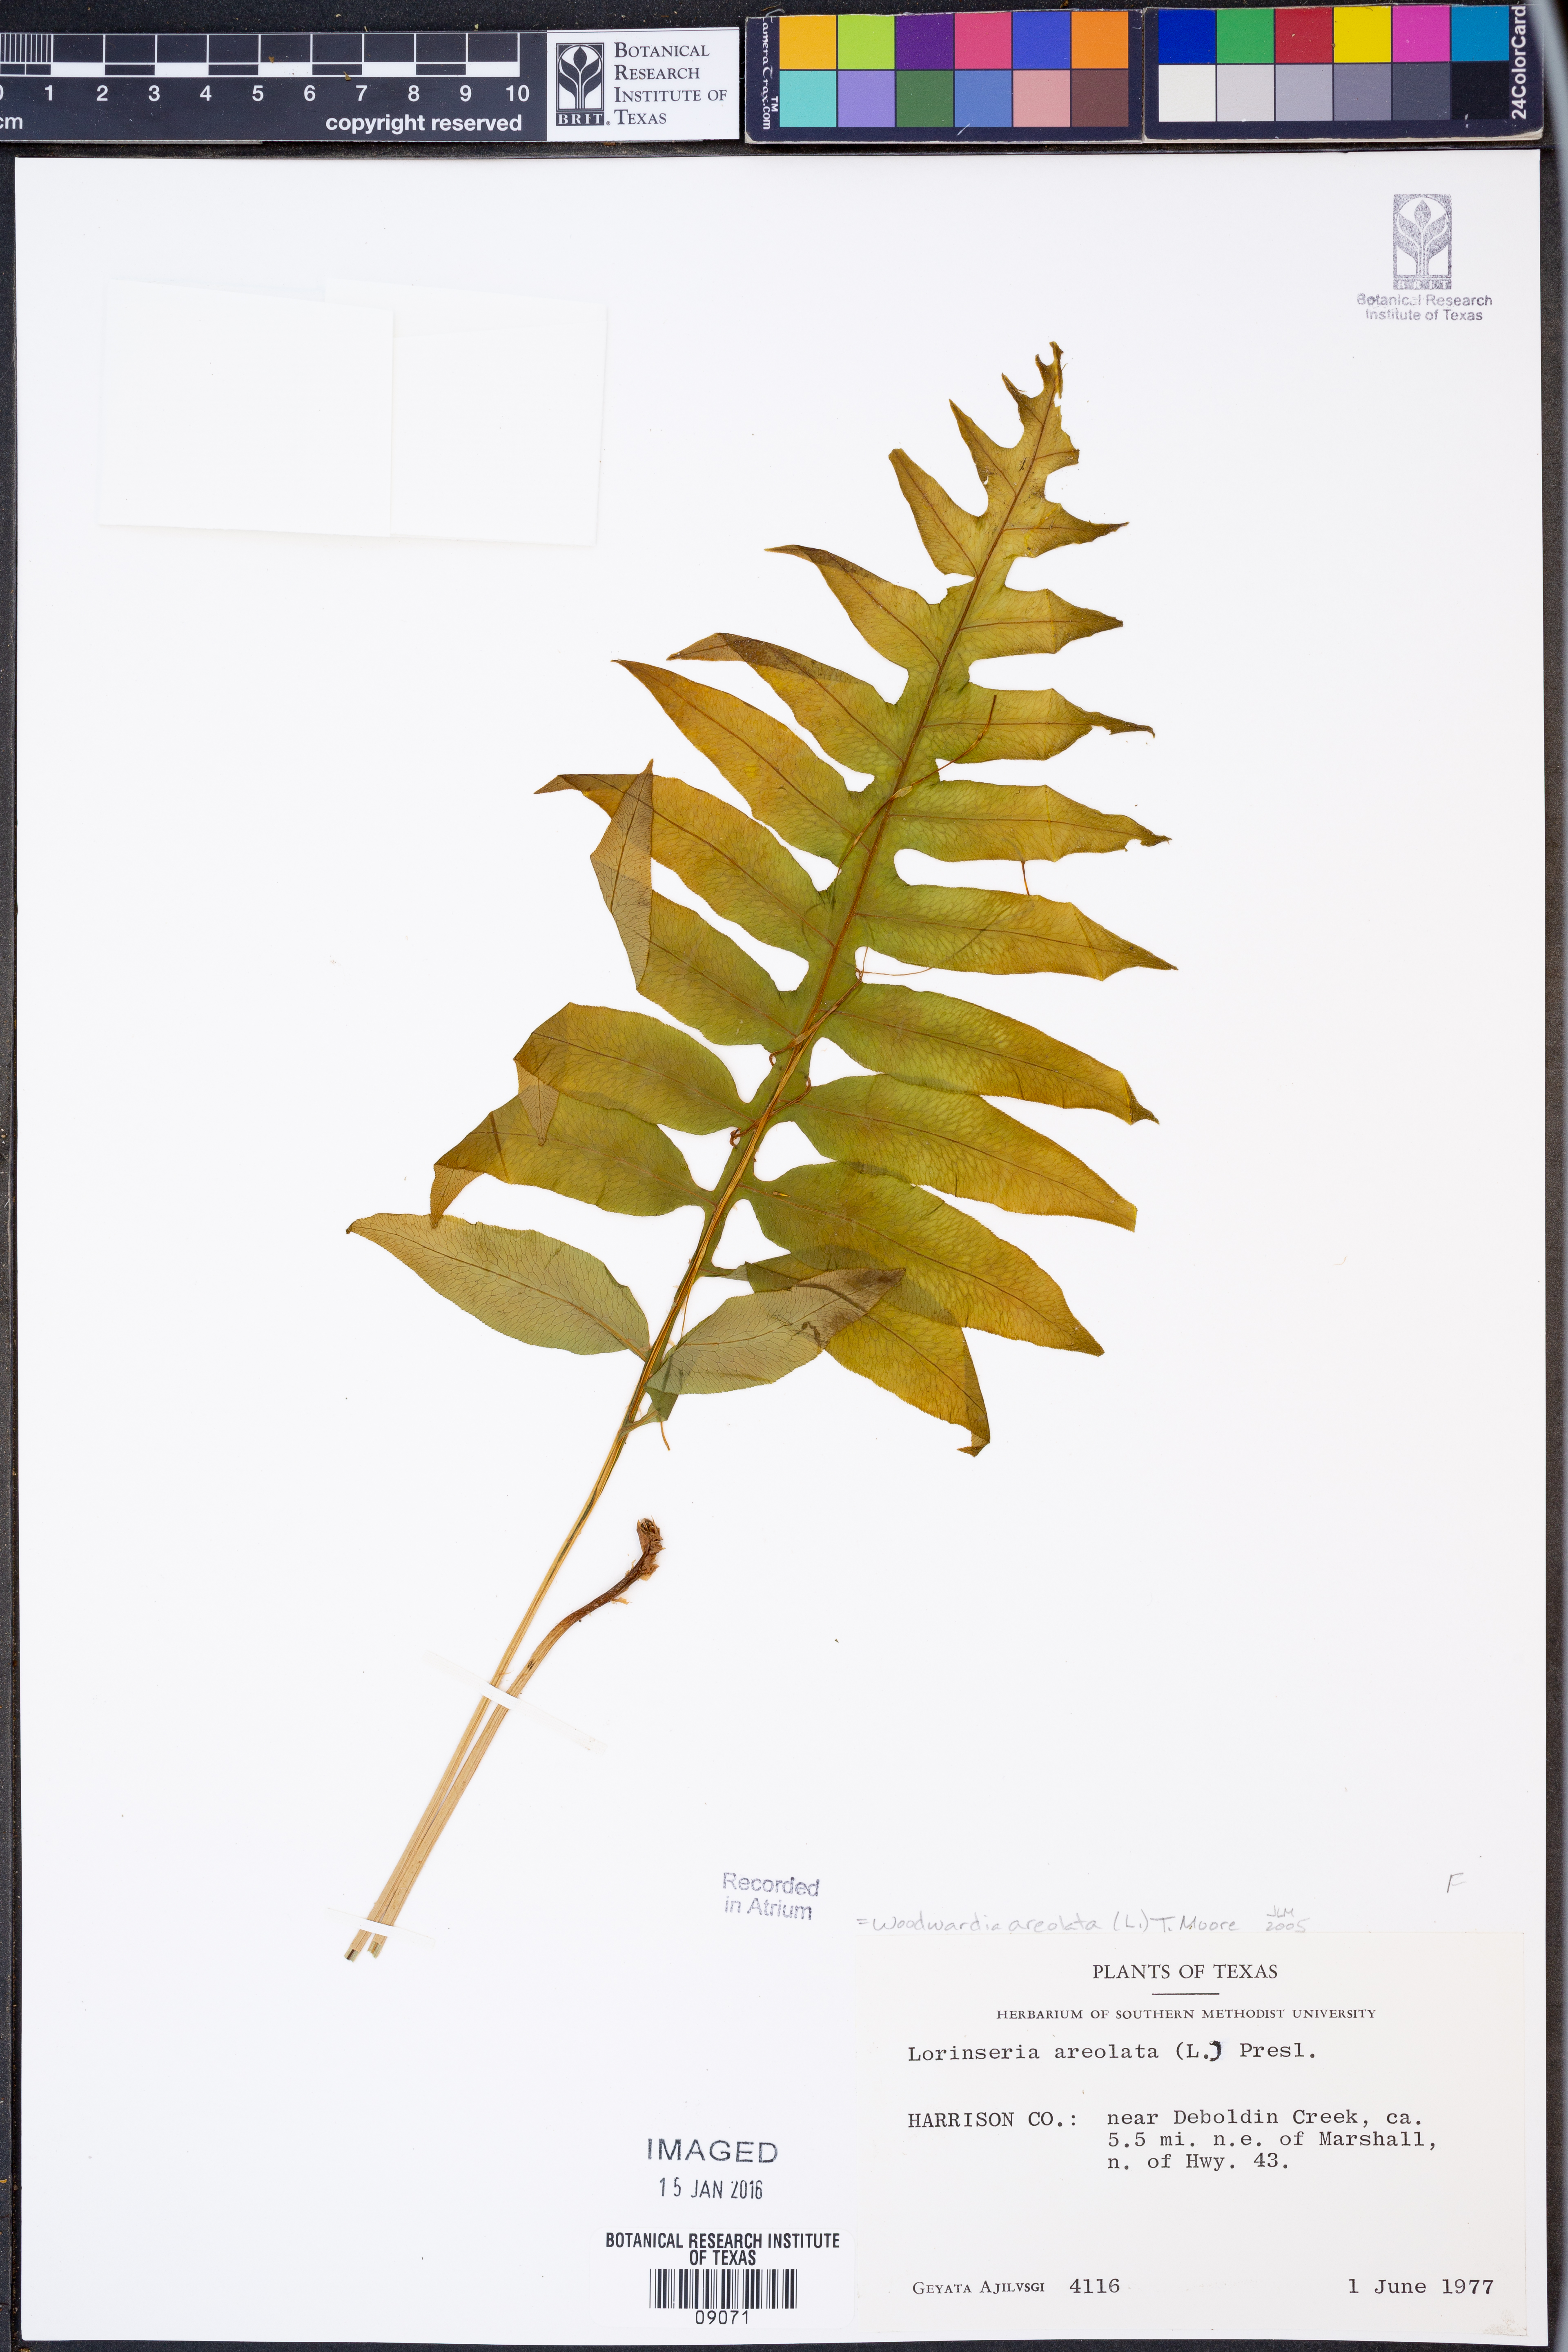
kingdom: Plantae
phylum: Tracheophyta
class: Polypodiopsida
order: Polypodiales
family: Blechnaceae
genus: Lorinseria
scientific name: Lorinseria areolata
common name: Dwarf chain fern
